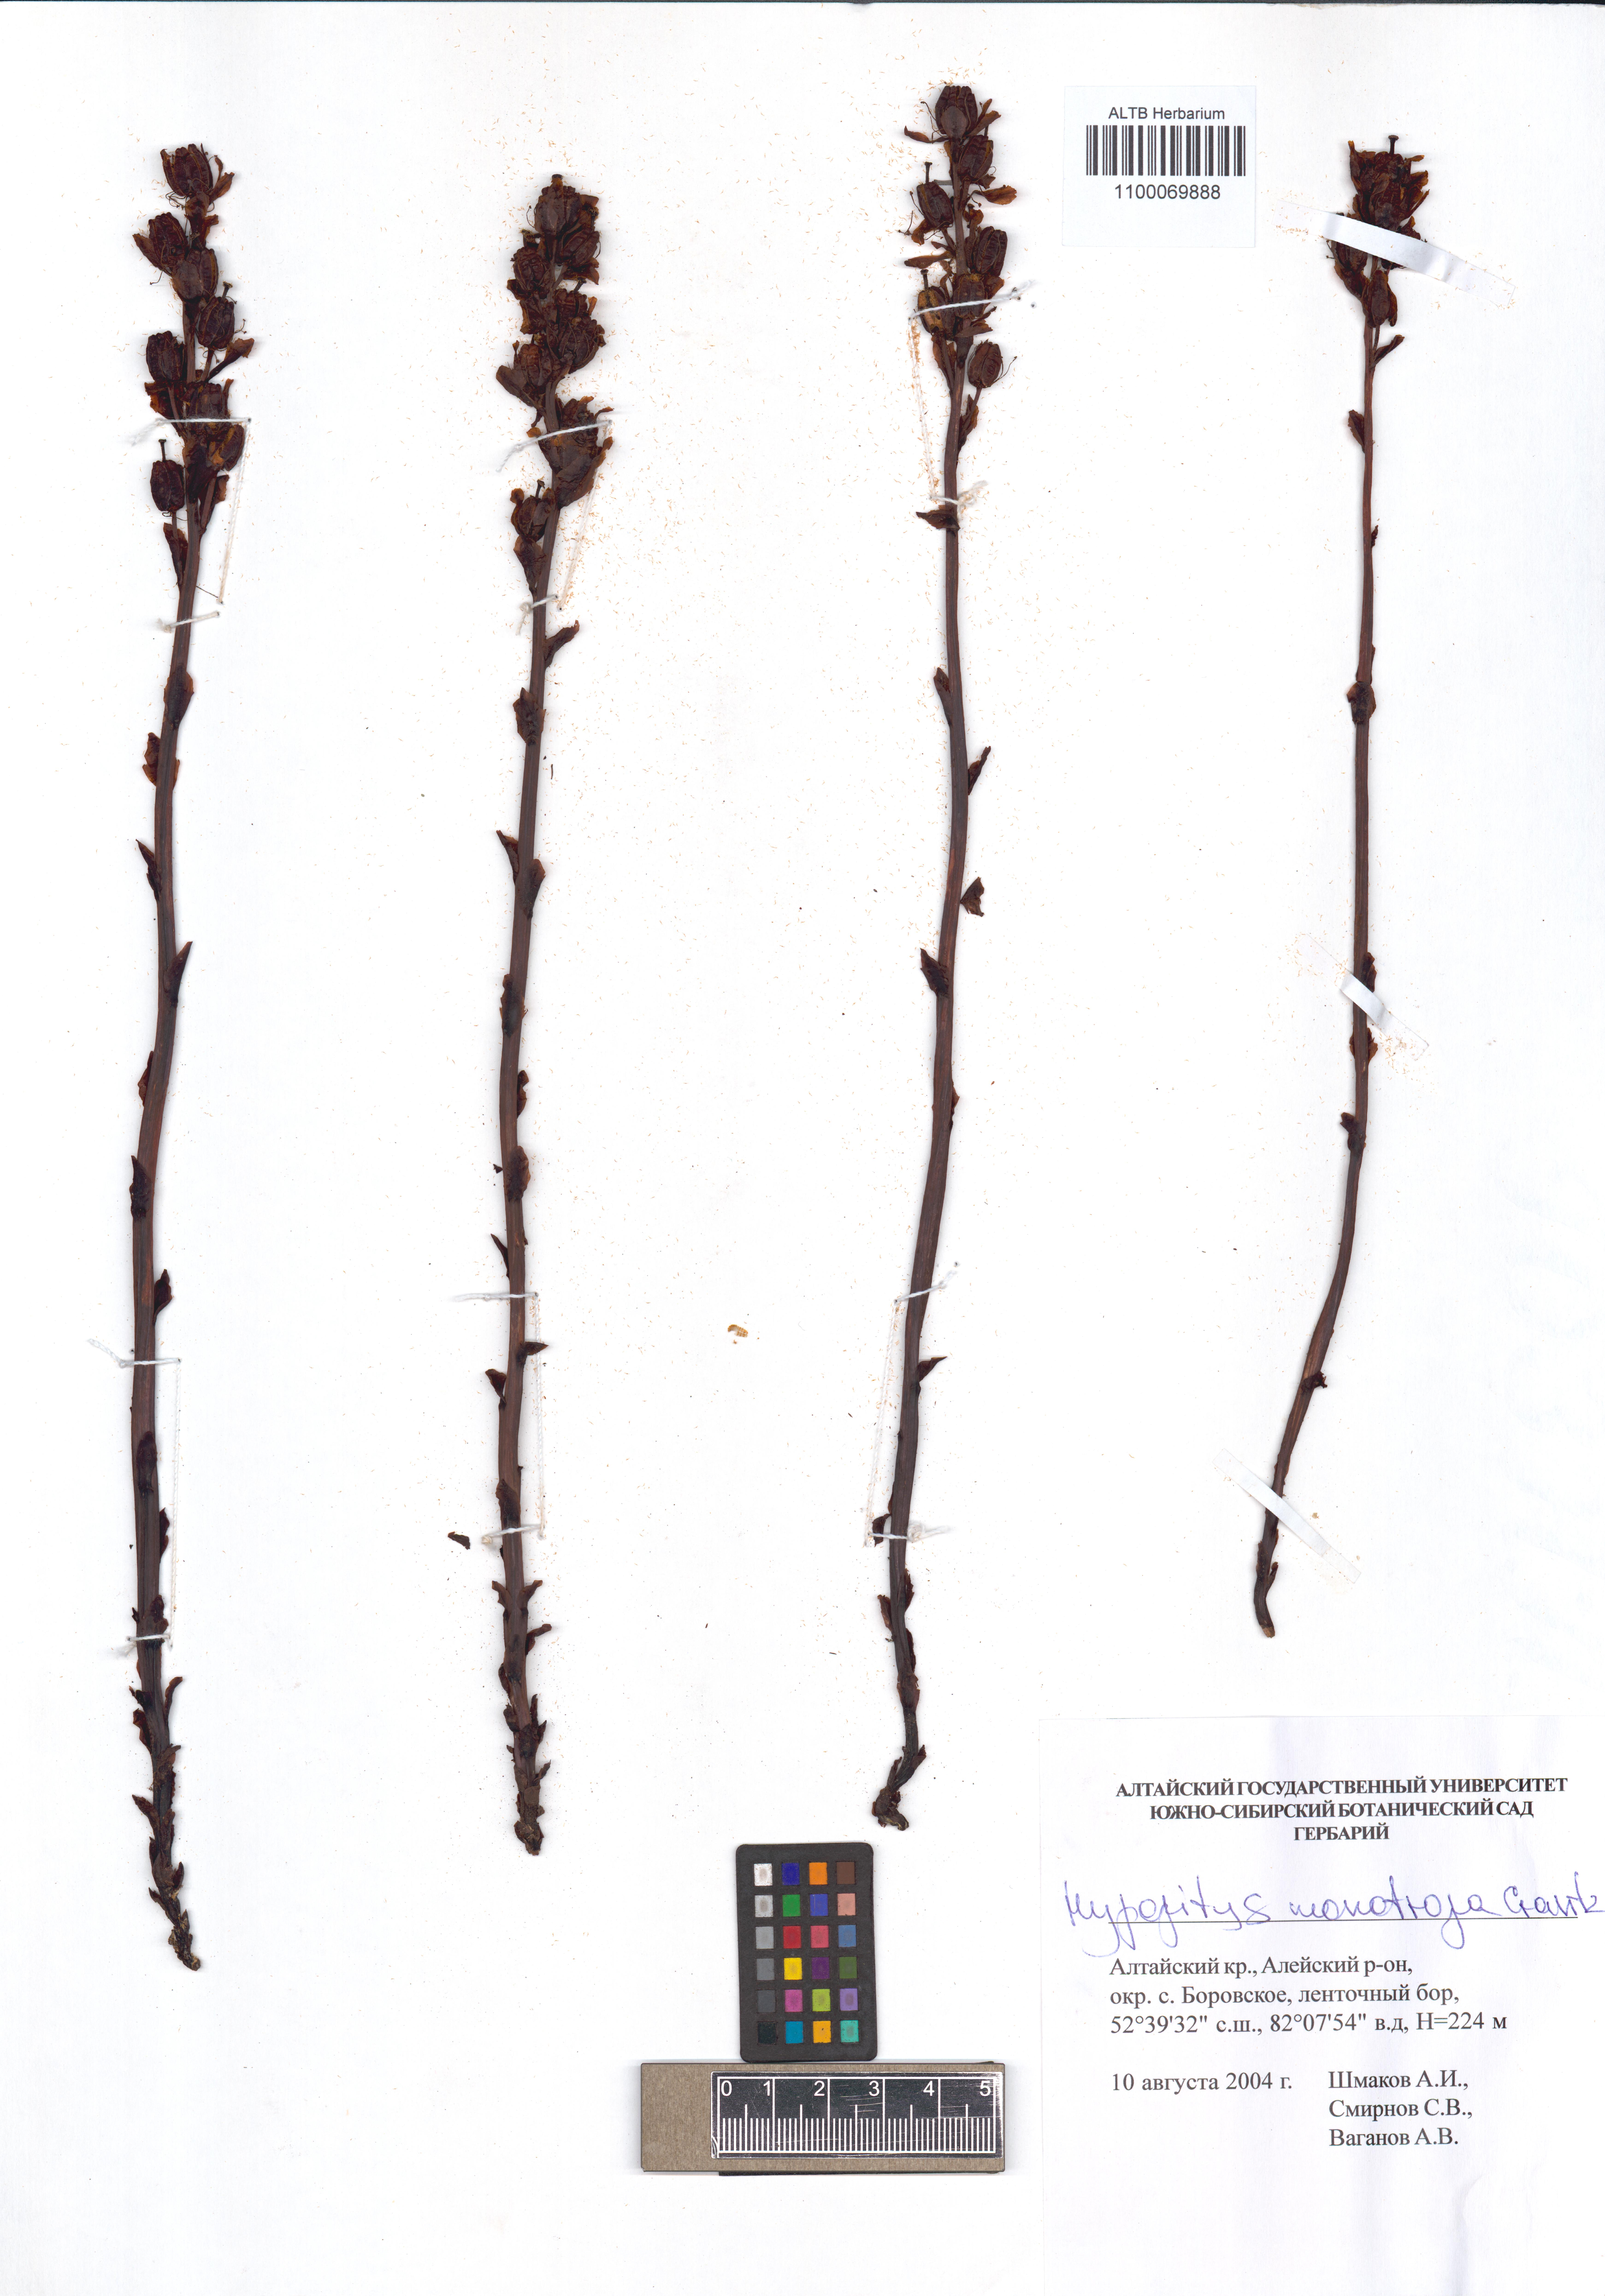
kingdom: Plantae
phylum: Tracheophyta
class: Magnoliopsida
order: Ericales
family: Ericaceae
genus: Hypopitys
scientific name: Hypopitys monotropa
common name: Yellow bird's-nest
